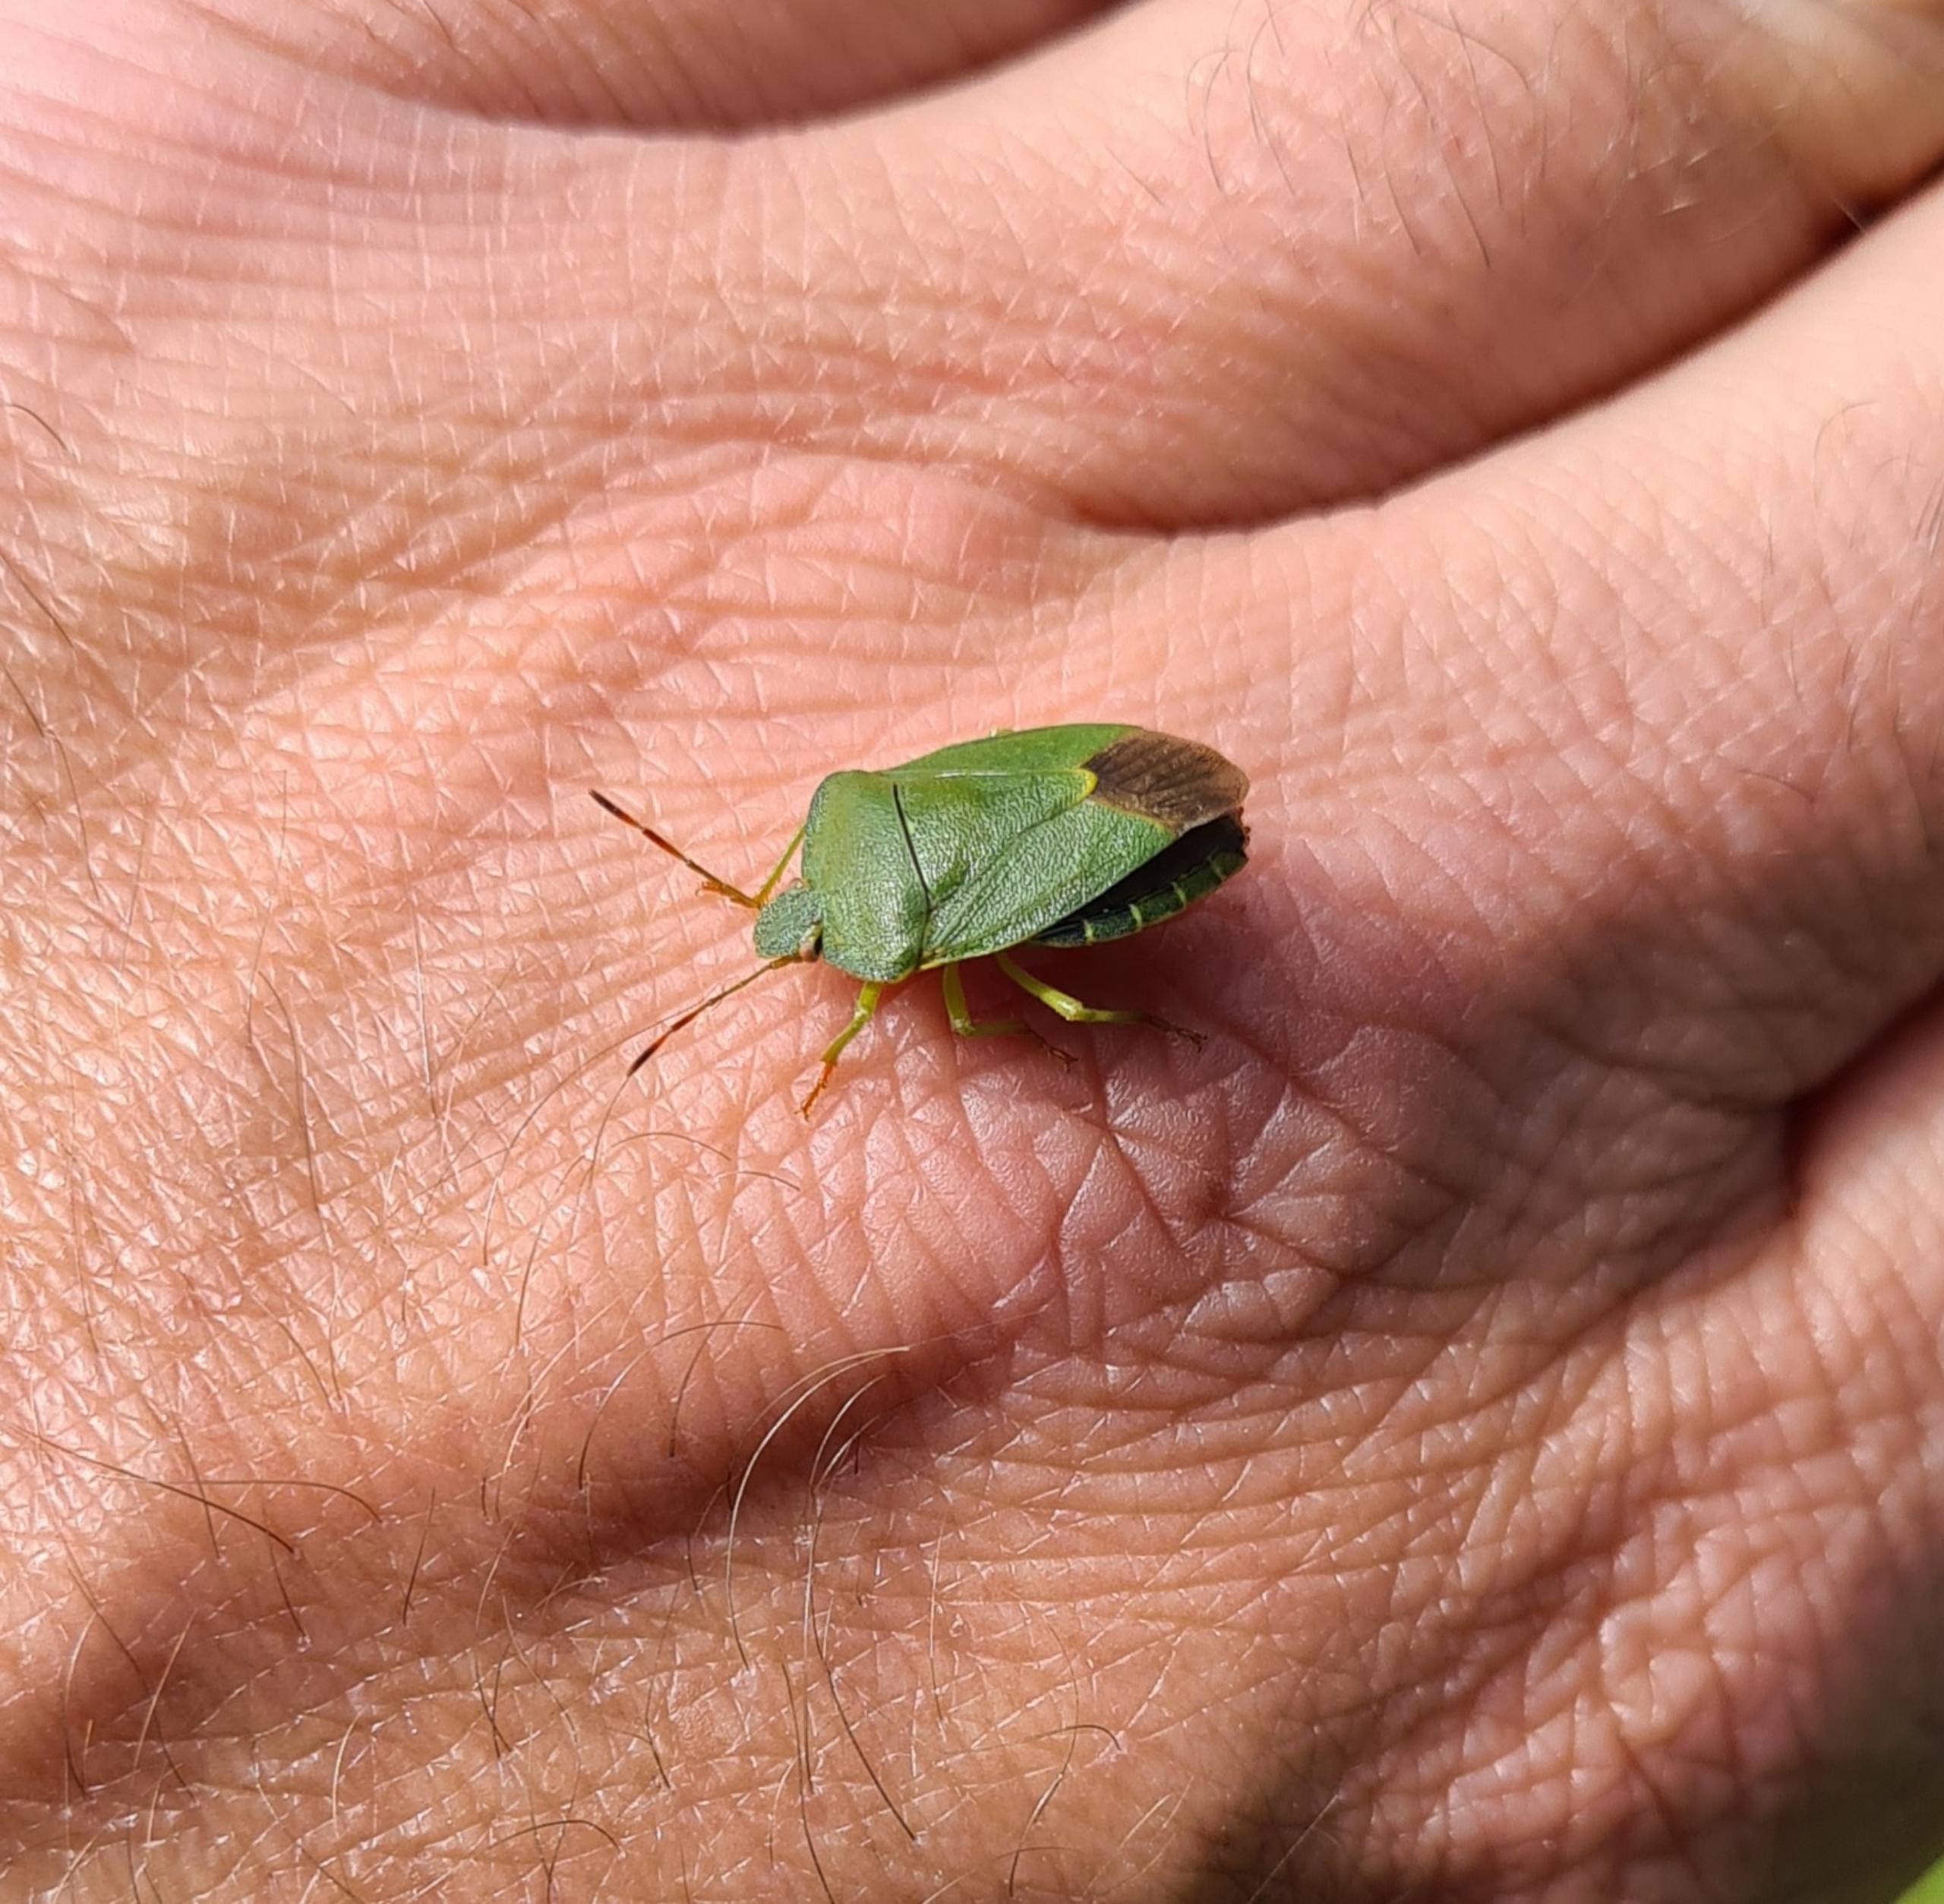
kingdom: Animalia
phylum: Arthropoda
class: Insecta
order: Hemiptera
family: Pentatomidae
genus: Palomena
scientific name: Palomena prasina
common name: Grøn bredtæge
